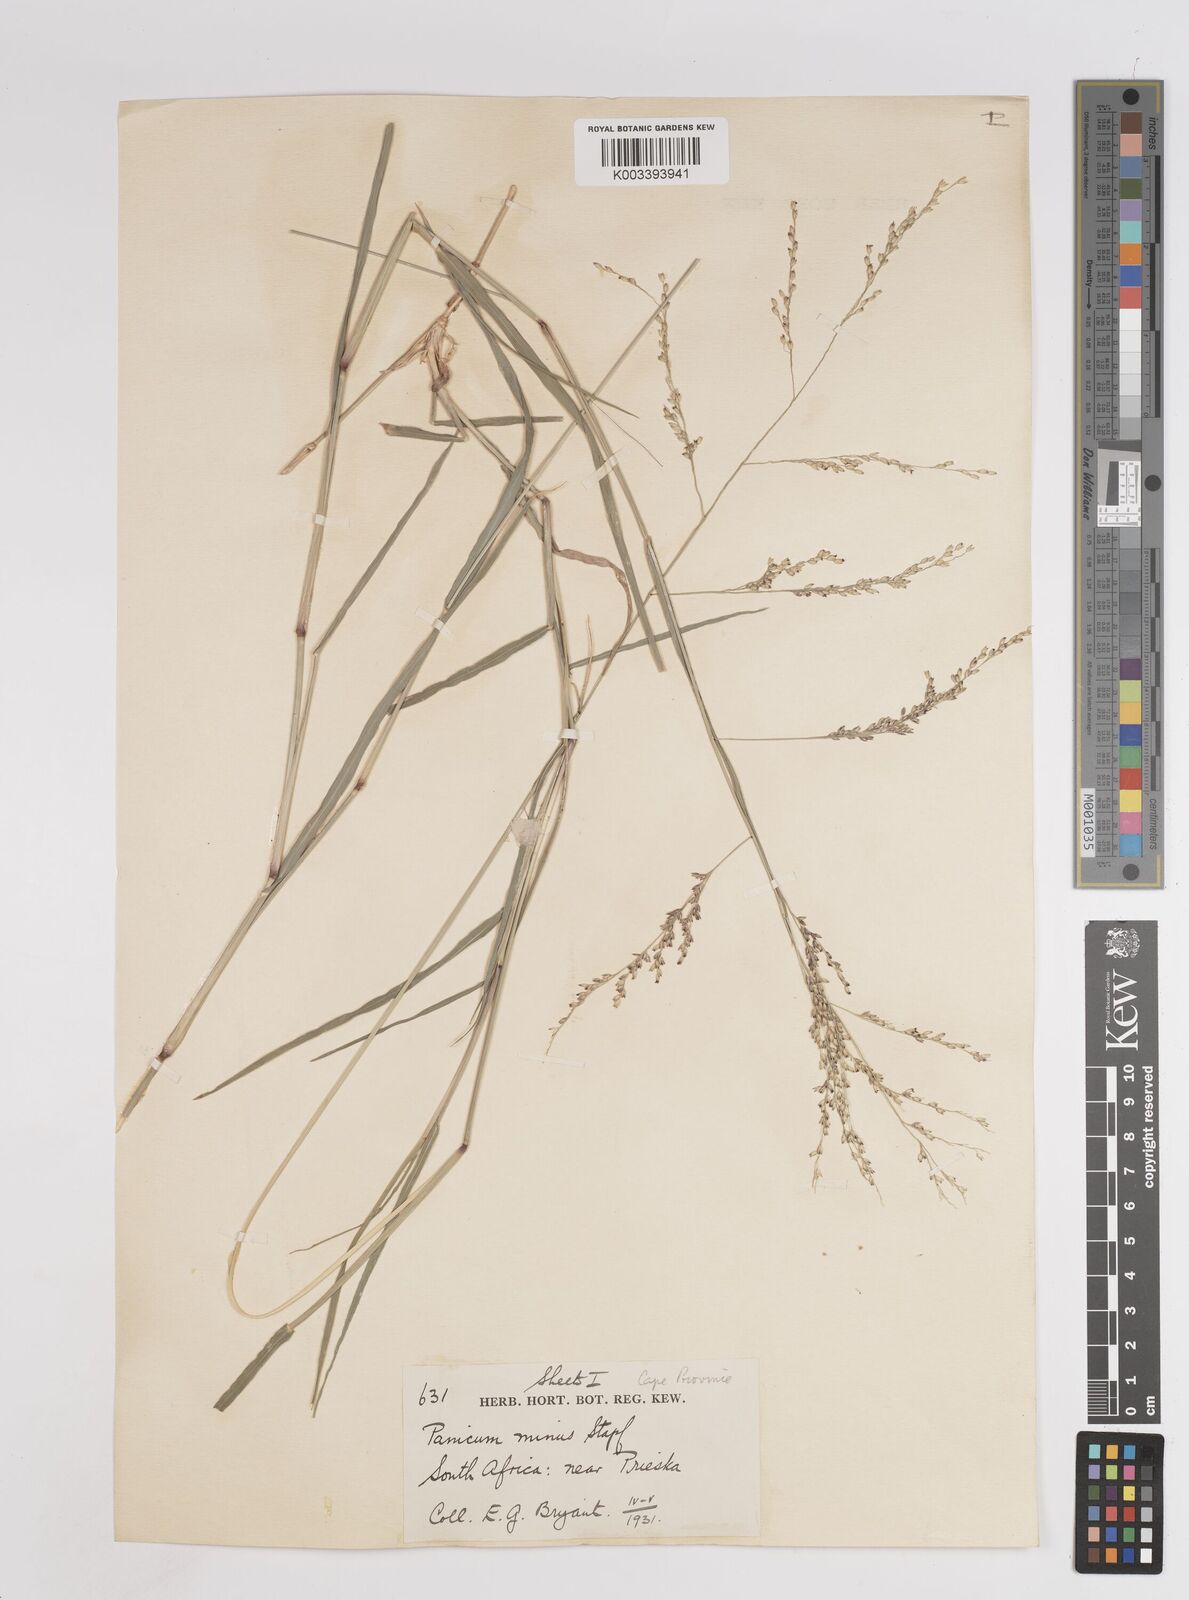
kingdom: Plantae
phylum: Tracheophyta
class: Liliopsida
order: Poales
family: Poaceae
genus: Panicum
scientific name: Panicum coloratum
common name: Kleingrass
